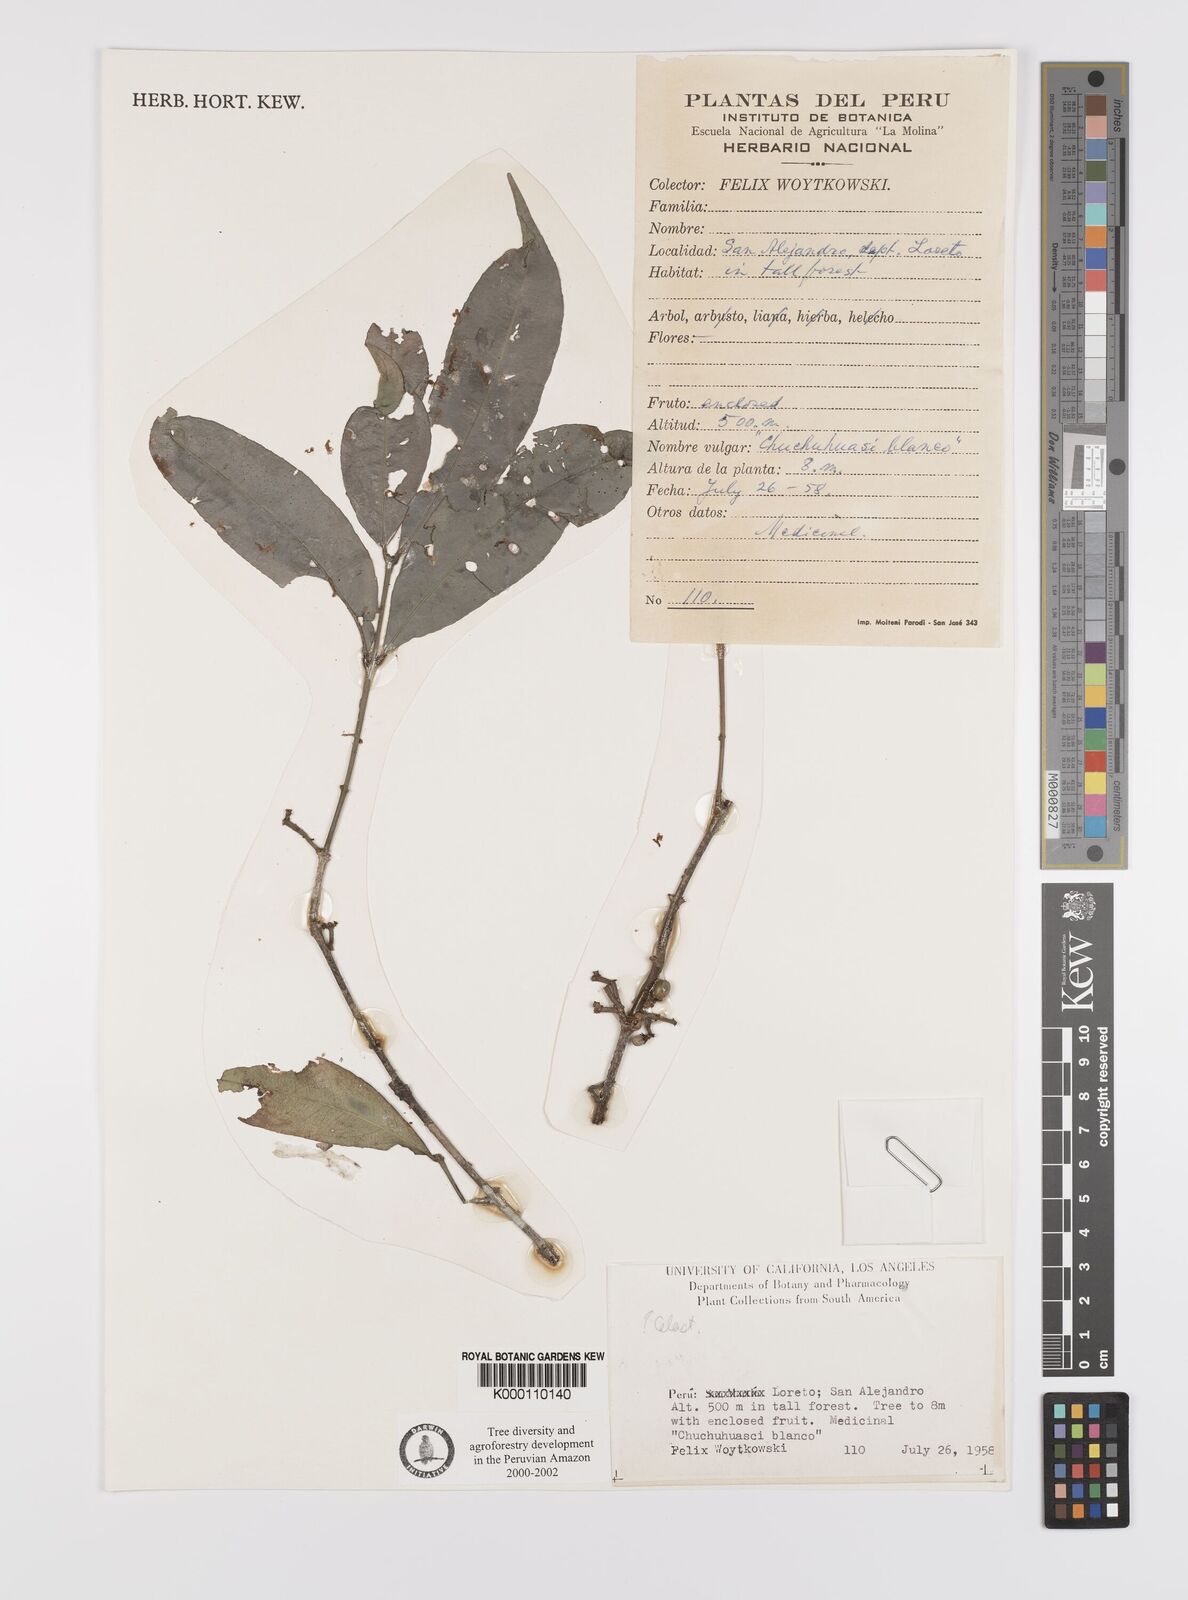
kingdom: Plantae
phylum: Tracheophyta
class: Magnoliopsida
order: Celastrales
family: Celastraceae
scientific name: Celastraceae
